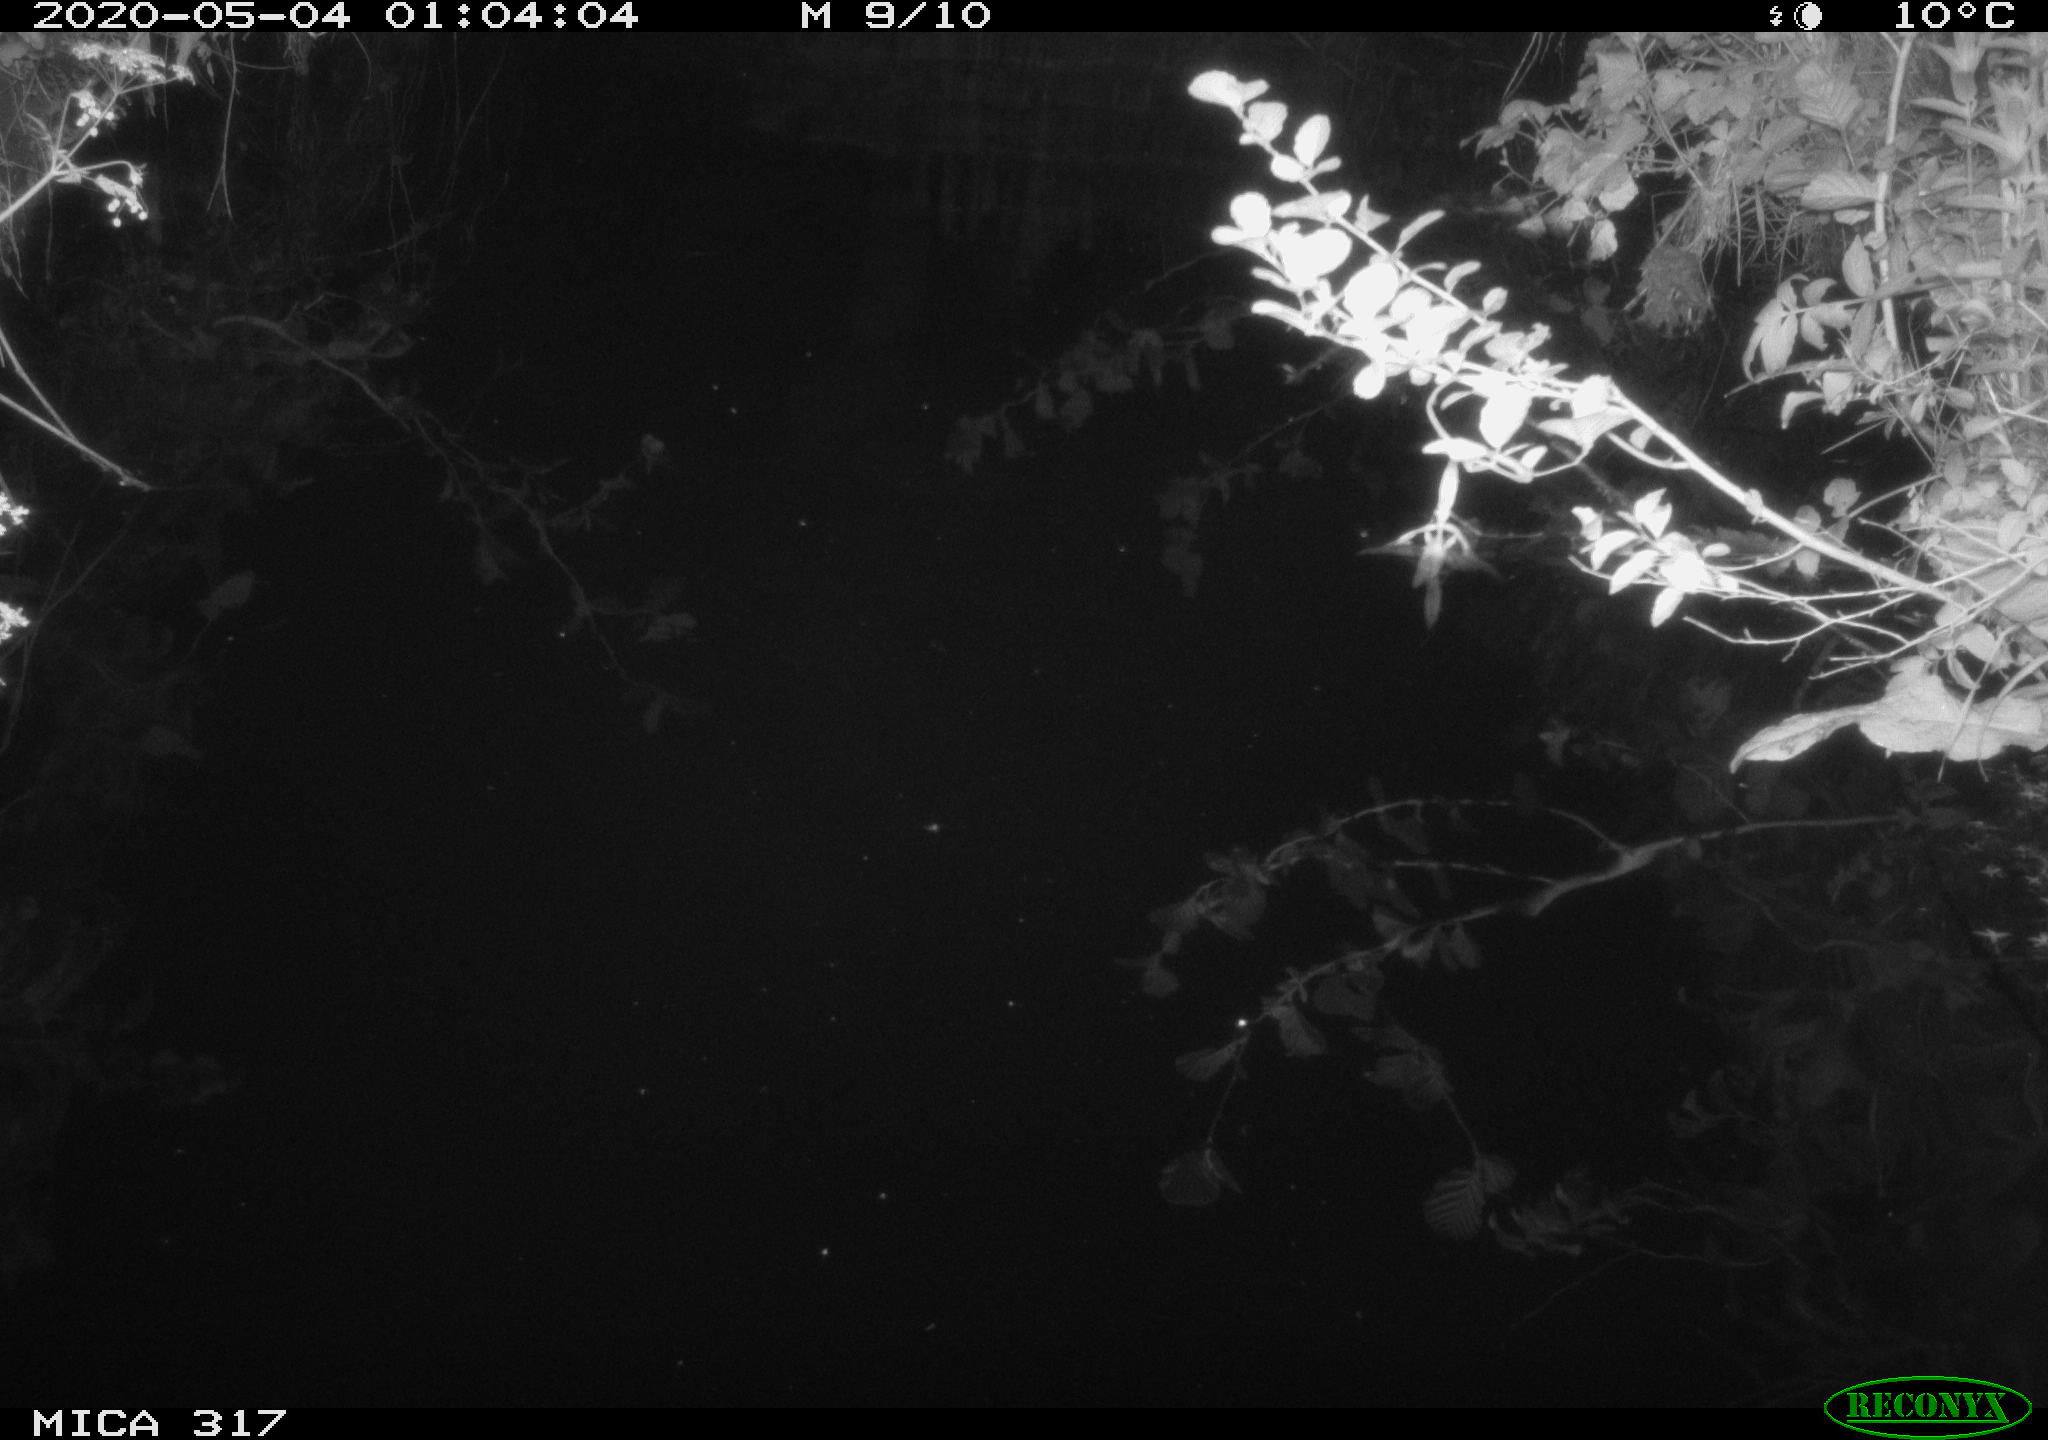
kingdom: Animalia
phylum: Chordata
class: Aves
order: Anseriformes
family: Anatidae
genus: Anas
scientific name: Anas platyrhynchos
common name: Mallard
